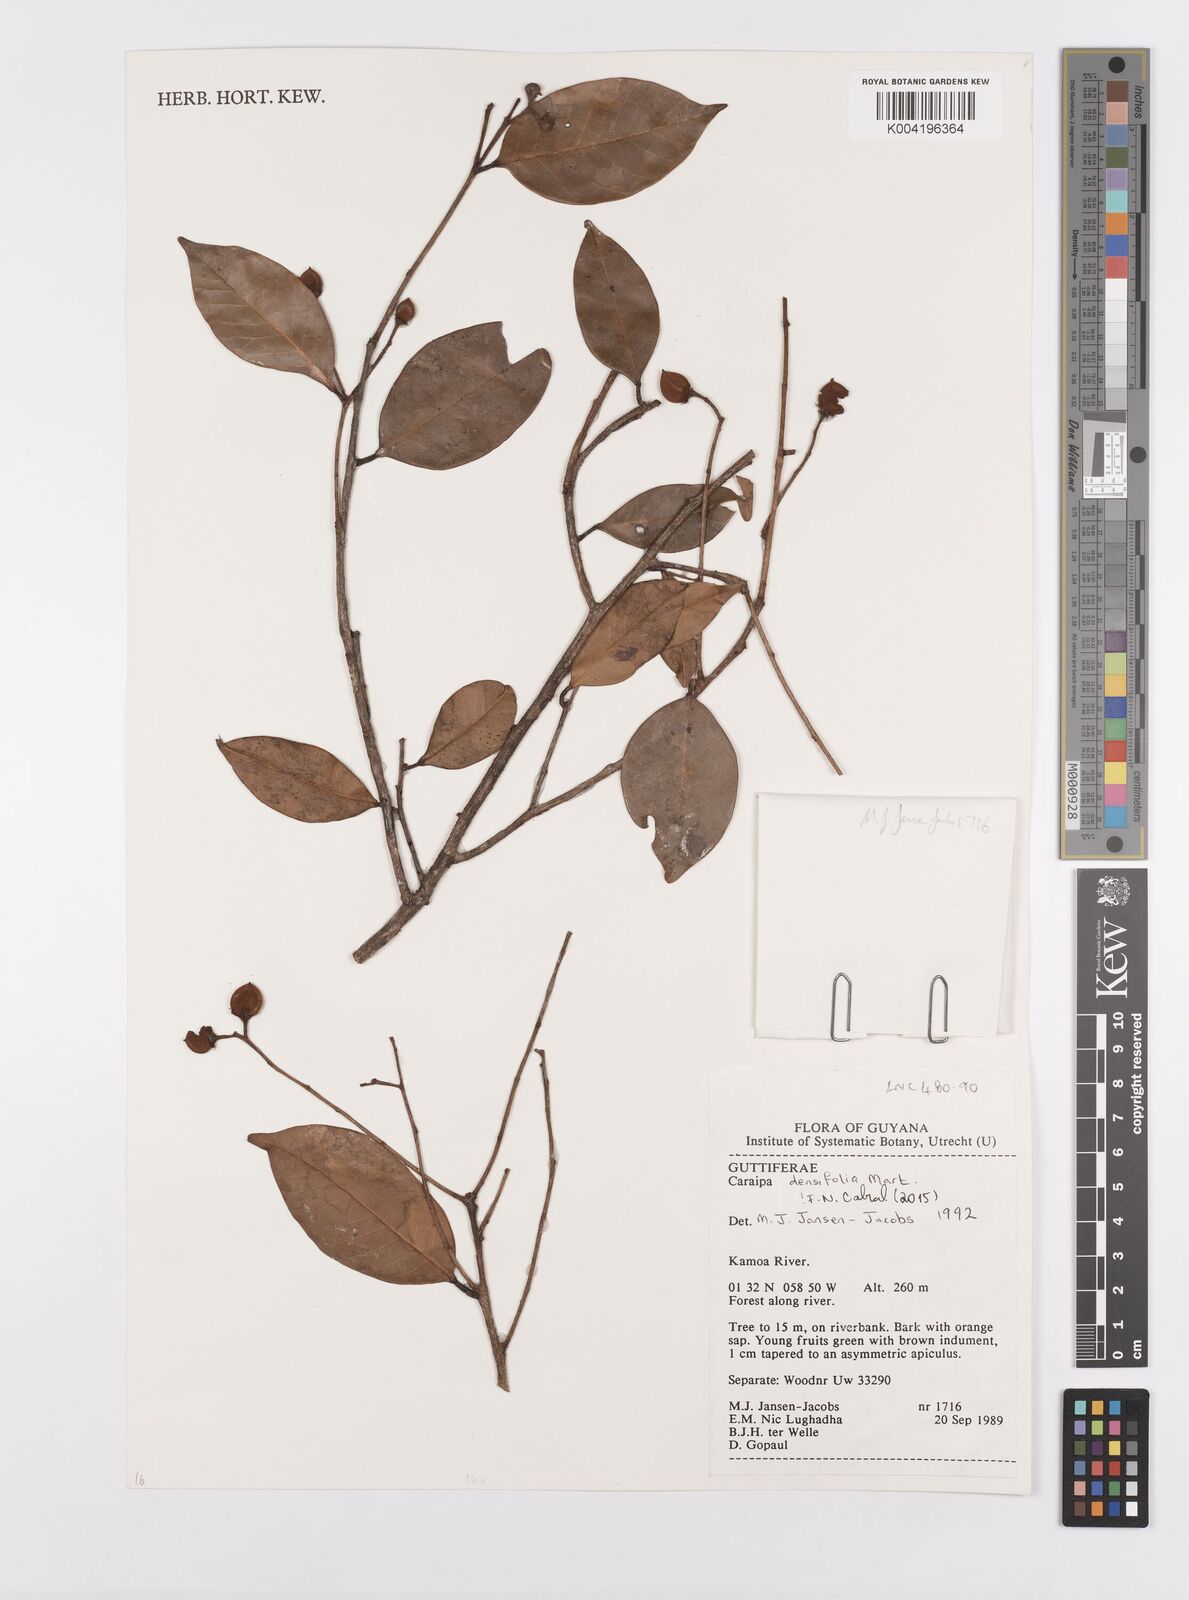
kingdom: Plantae
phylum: Tracheophyta
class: Magnoliopsida
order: Malpighiales
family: Calophyllaceae
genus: Caraipa
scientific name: Caraipa densifolia
